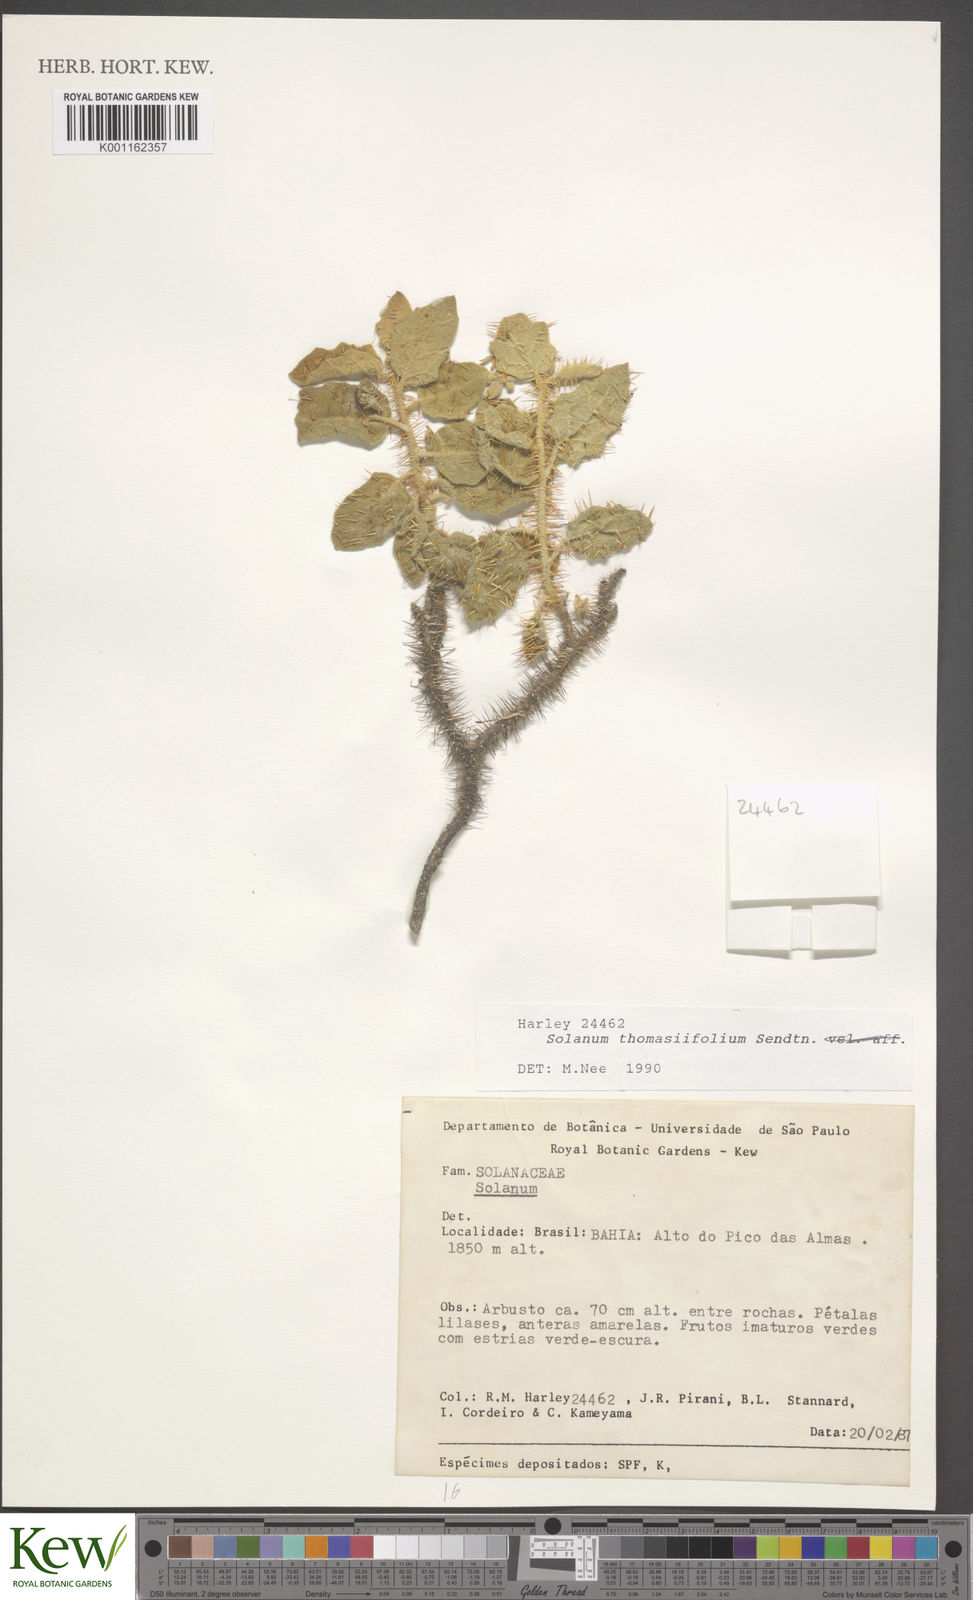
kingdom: Plantae
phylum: Tracheophyta
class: Magnoliopsida
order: Solanales
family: Solanaceae
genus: Solanum
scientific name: Solanum thomasiifolium
